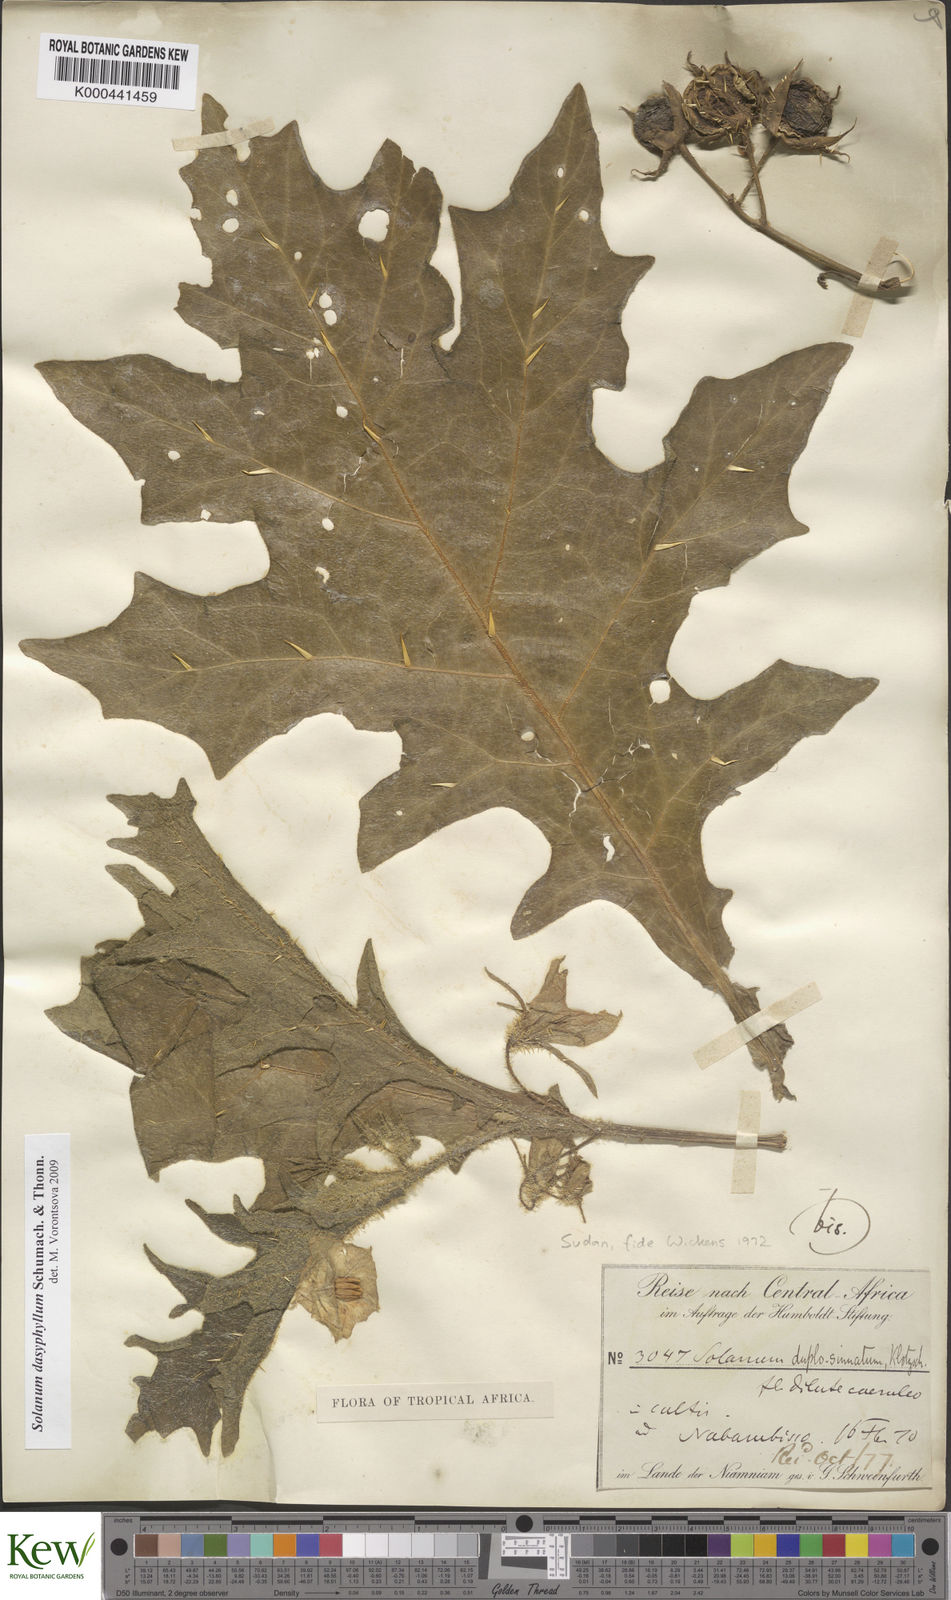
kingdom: Plantae
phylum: Tracheophyta
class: Magnoliopsida
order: Solanales
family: Solanaceae
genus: Solanum
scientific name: Solanum dasyphyllum
